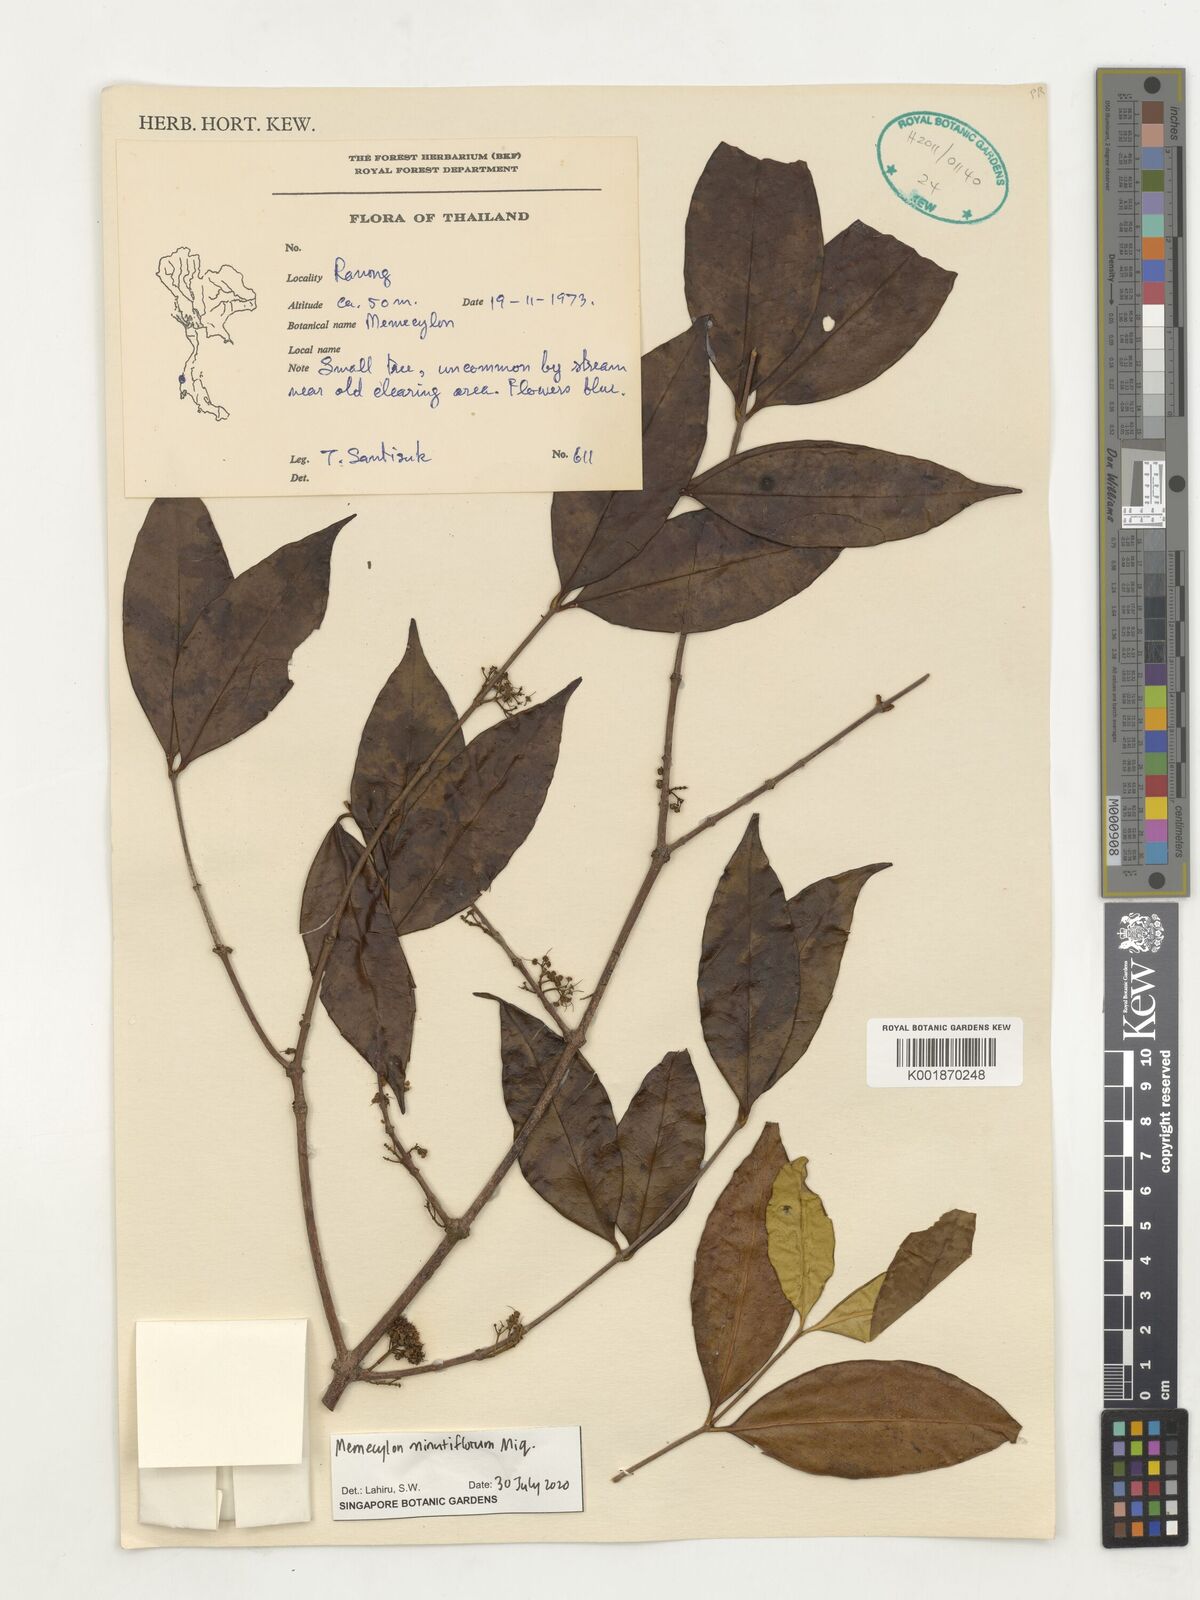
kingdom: Plantae
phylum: Tracheophyta
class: Magnoliopsida
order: Myrtales
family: Melastomataceae
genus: Memecylon
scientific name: Memecylon minutiflorum
